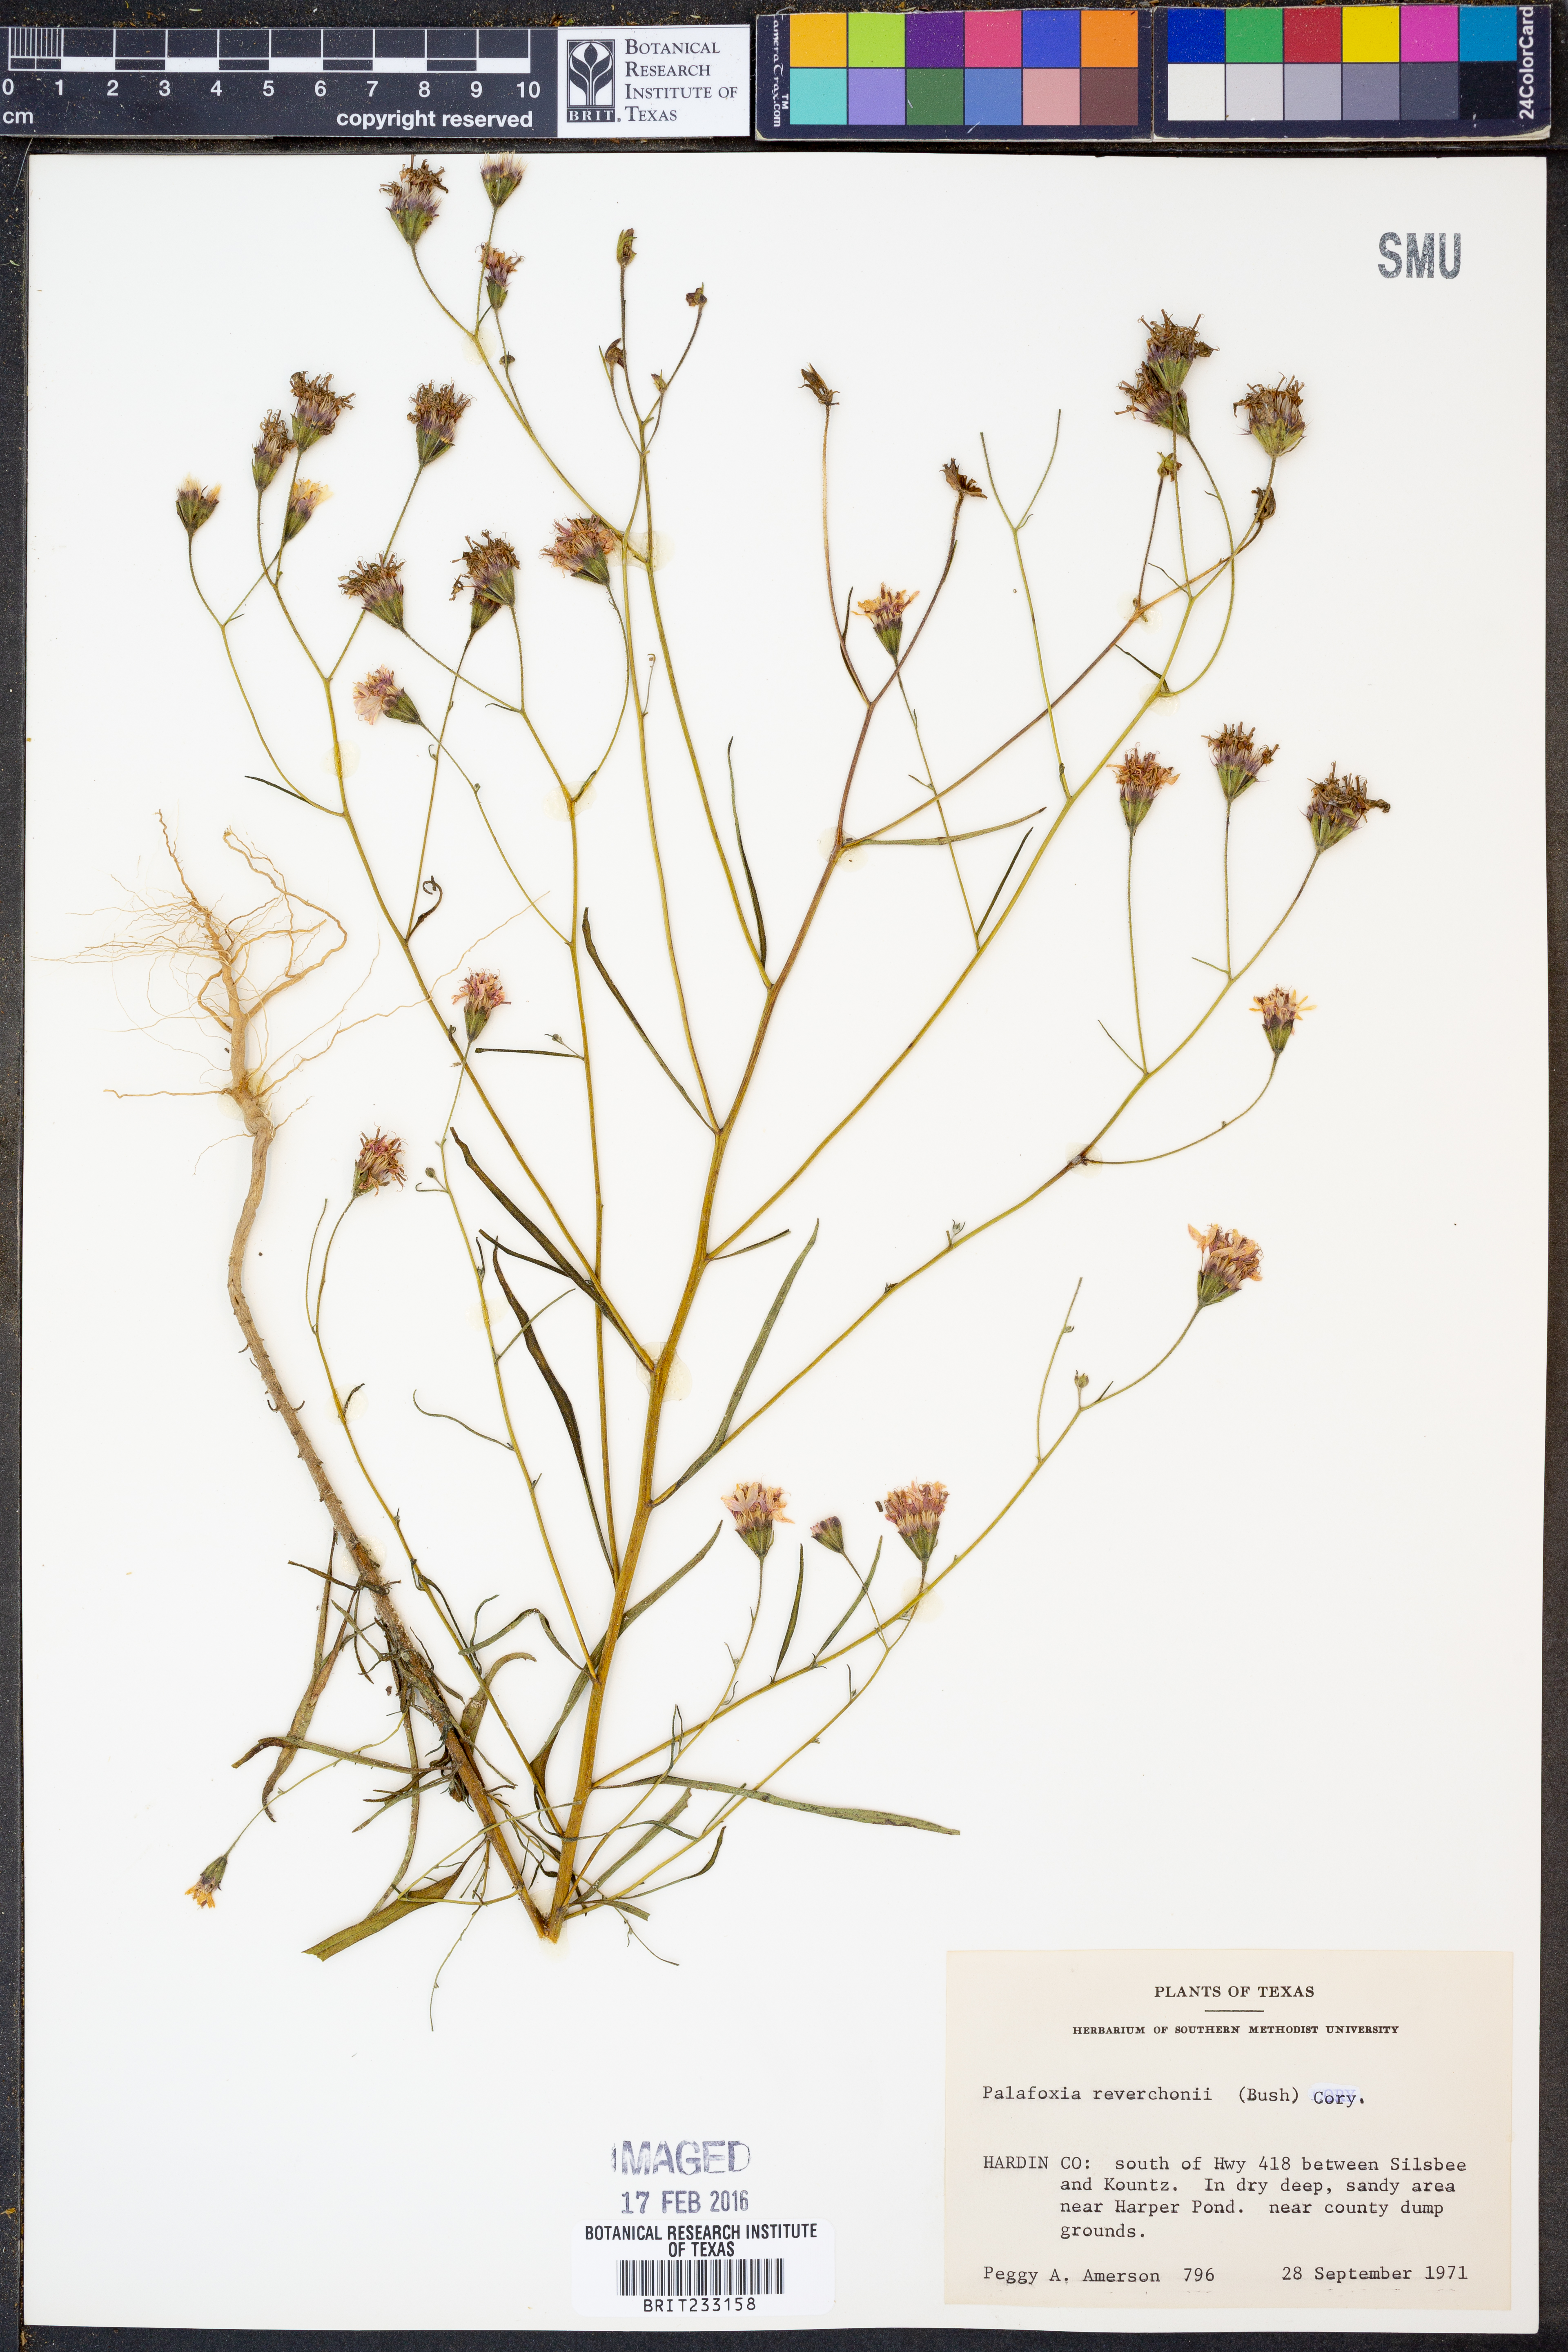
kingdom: Plantae
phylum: Tracheophyta
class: Magnoliopsida
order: Asterales
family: Asteraceae
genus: Palafoxia
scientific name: Palafoxia reverchonii
